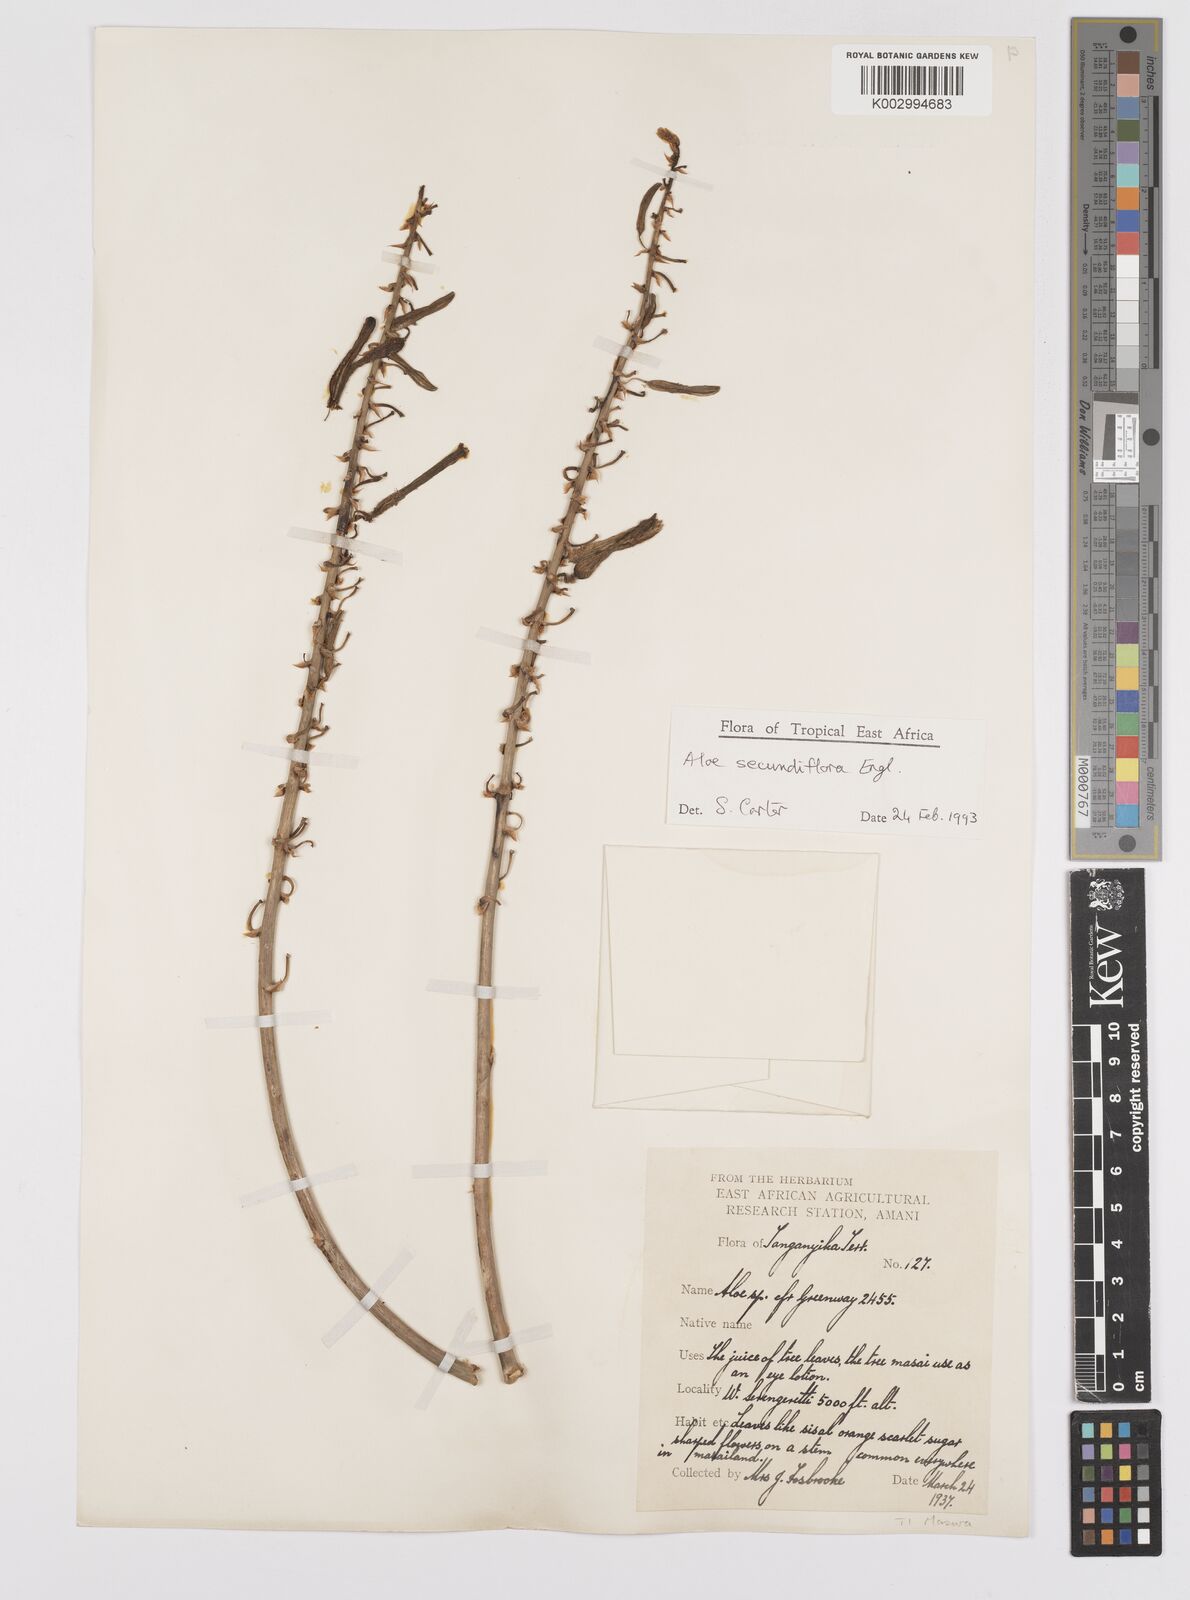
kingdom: Plantae
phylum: Tracheophyta
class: Liliopsida
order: Asparagales
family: Asphodelaceae
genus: Aloe
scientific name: Aloe secundiflora
